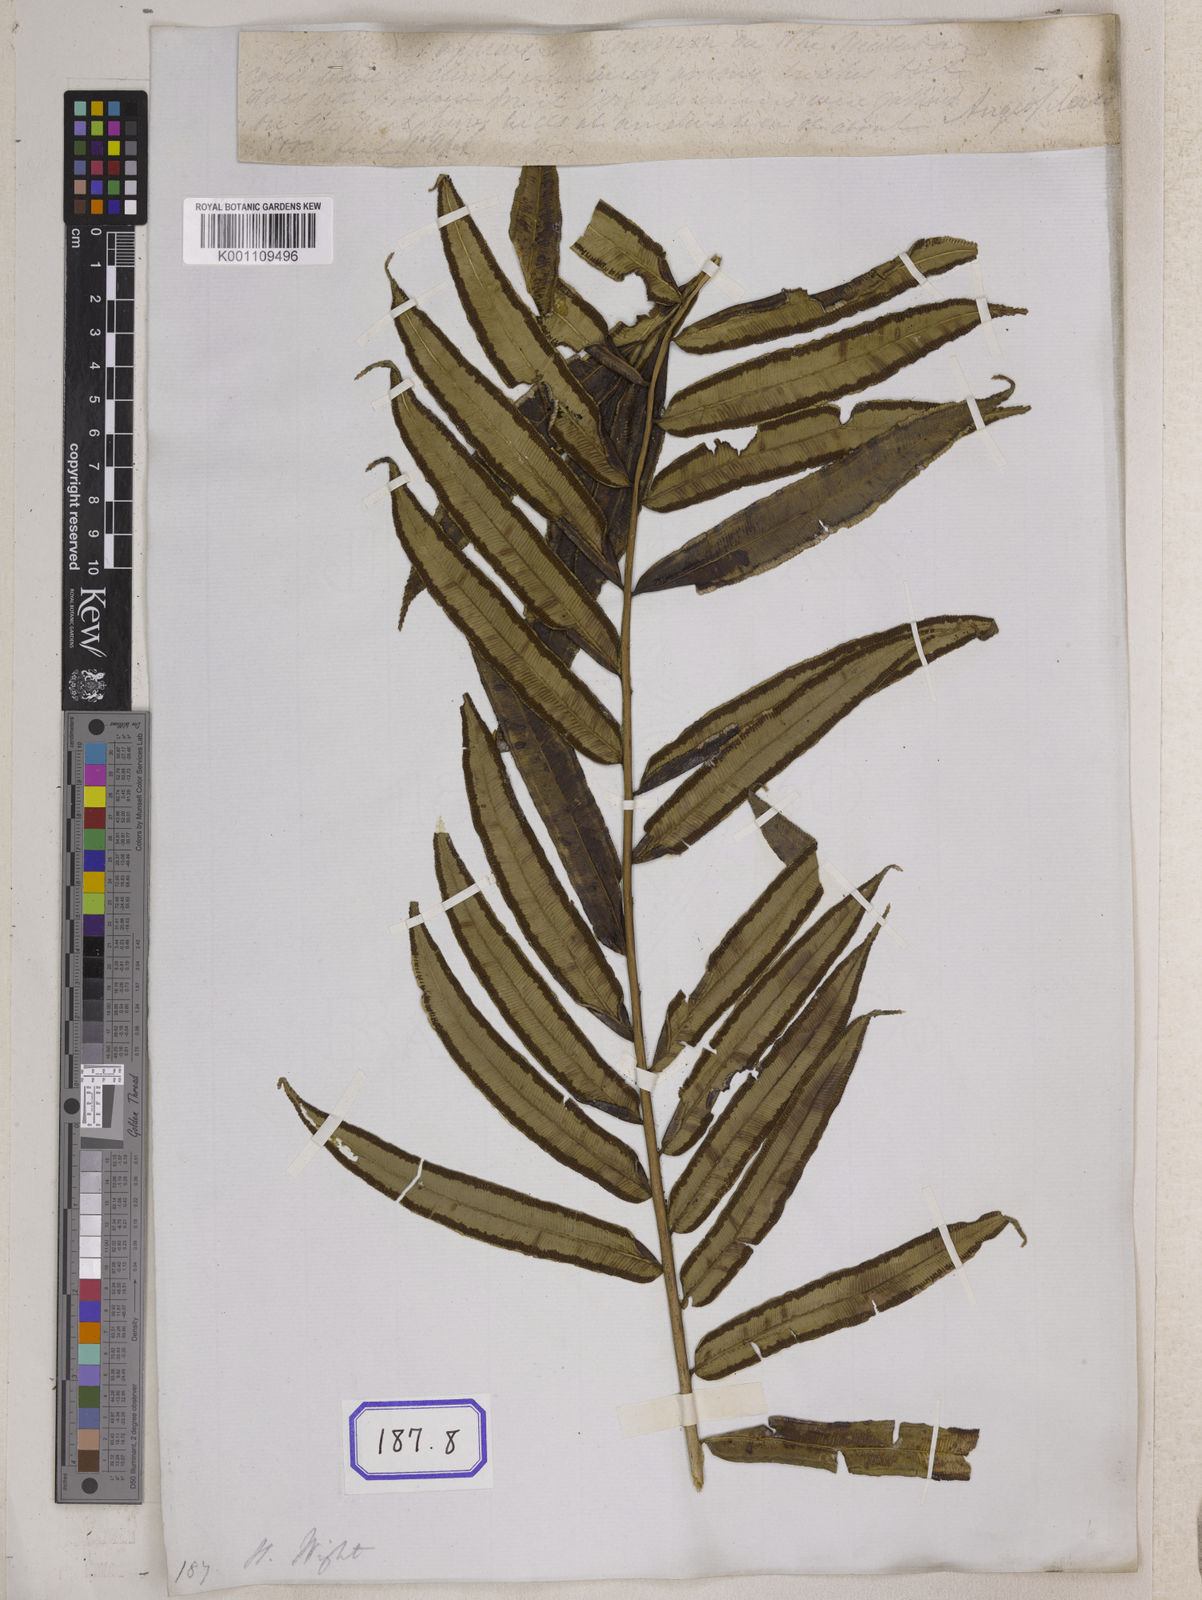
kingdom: Plantae
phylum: Tracheophyta
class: Polypodiopsida
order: Marattiales
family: Marattiaceae
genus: Angiopteris
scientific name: Angiopteris crassipes
